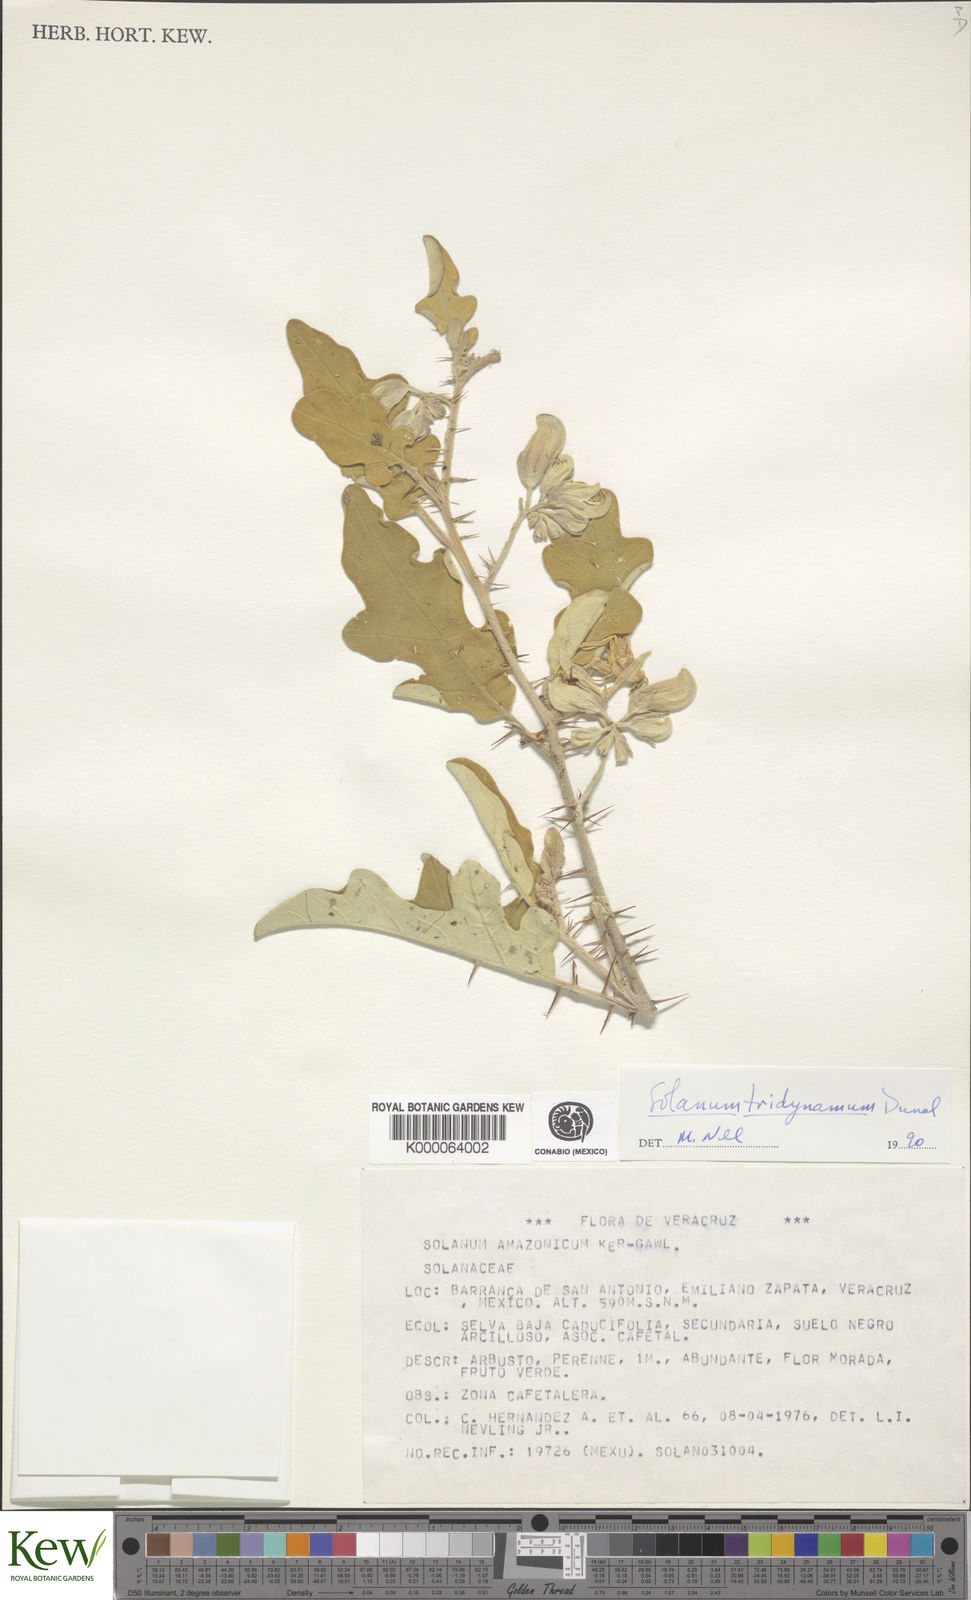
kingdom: Plantae
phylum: Tracheophyta
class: Magnoliopsida
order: Solanales
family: Solanaceae
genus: Solanum
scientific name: Solanum houstonii
